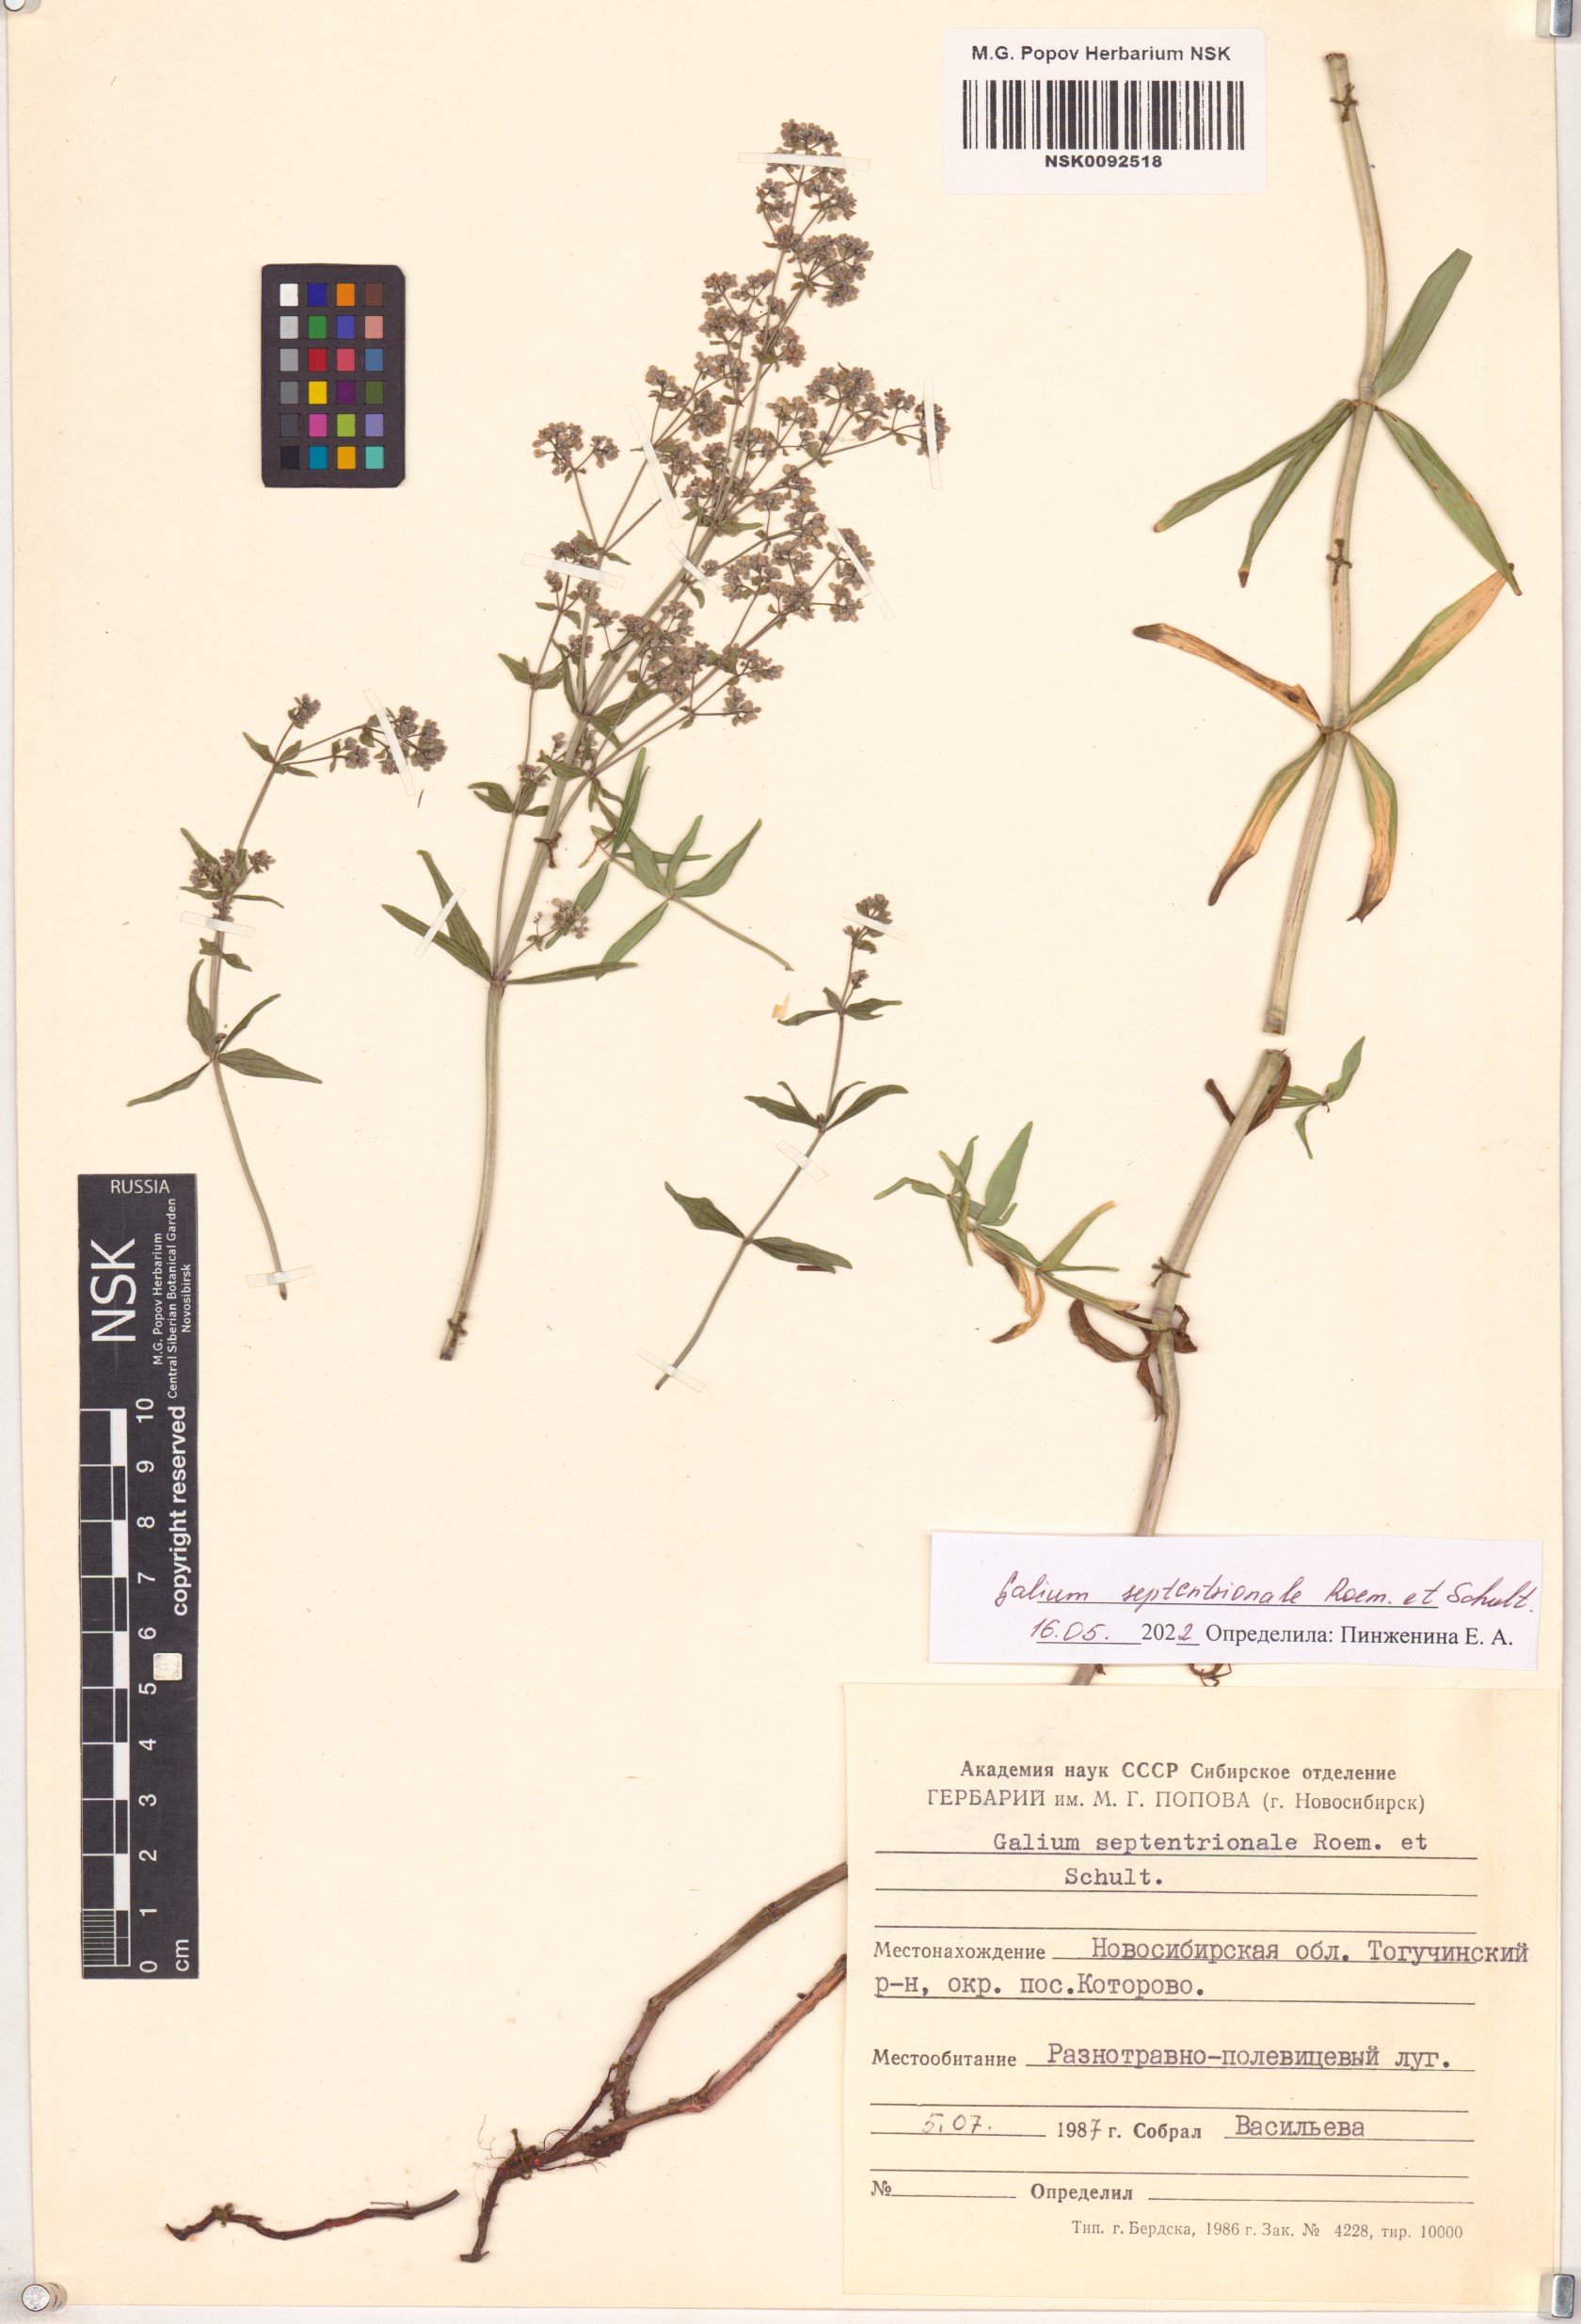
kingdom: Plantae
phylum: Tracheophyta
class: Magnoliopsida
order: Gentianales
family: Rubiaceae
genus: Galium
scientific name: Galium boreale
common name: Northern bedstraw
